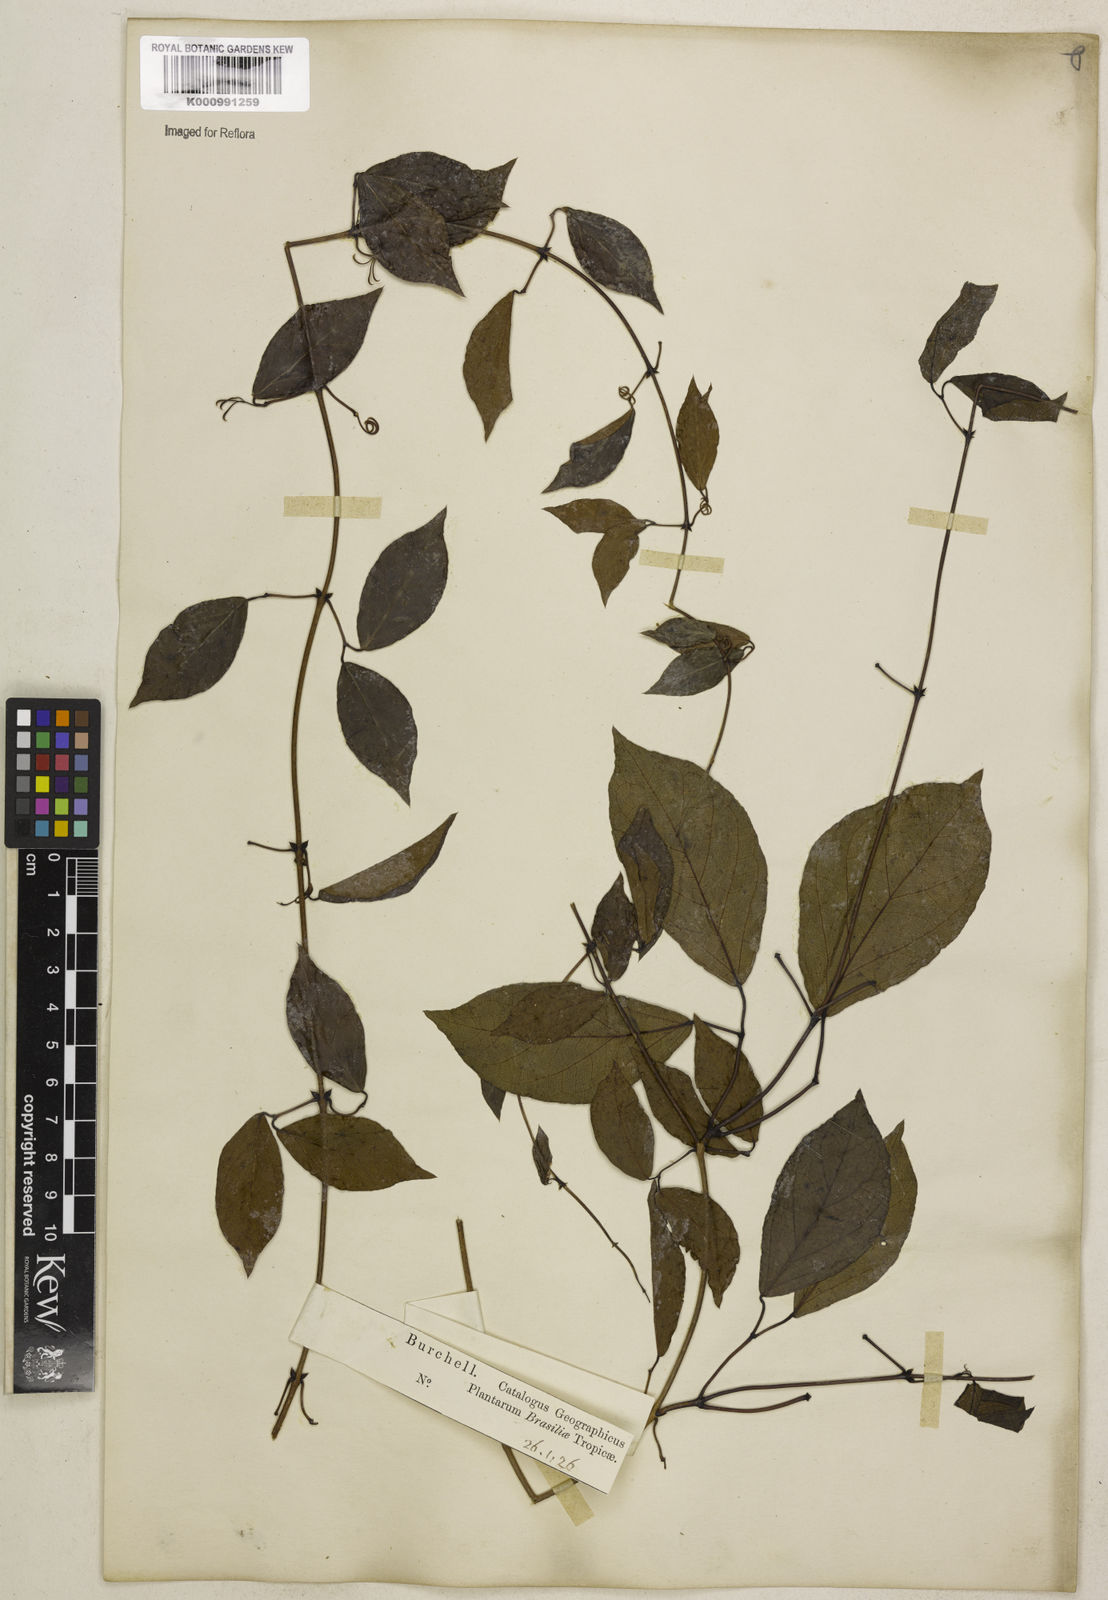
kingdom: Plantae
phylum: Tracheophyta
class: Magnoliopsida
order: Lamiales
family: Bignoniaceae
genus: Dolichandra
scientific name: Dolichandra unguis-cati
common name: Catclaw vine
